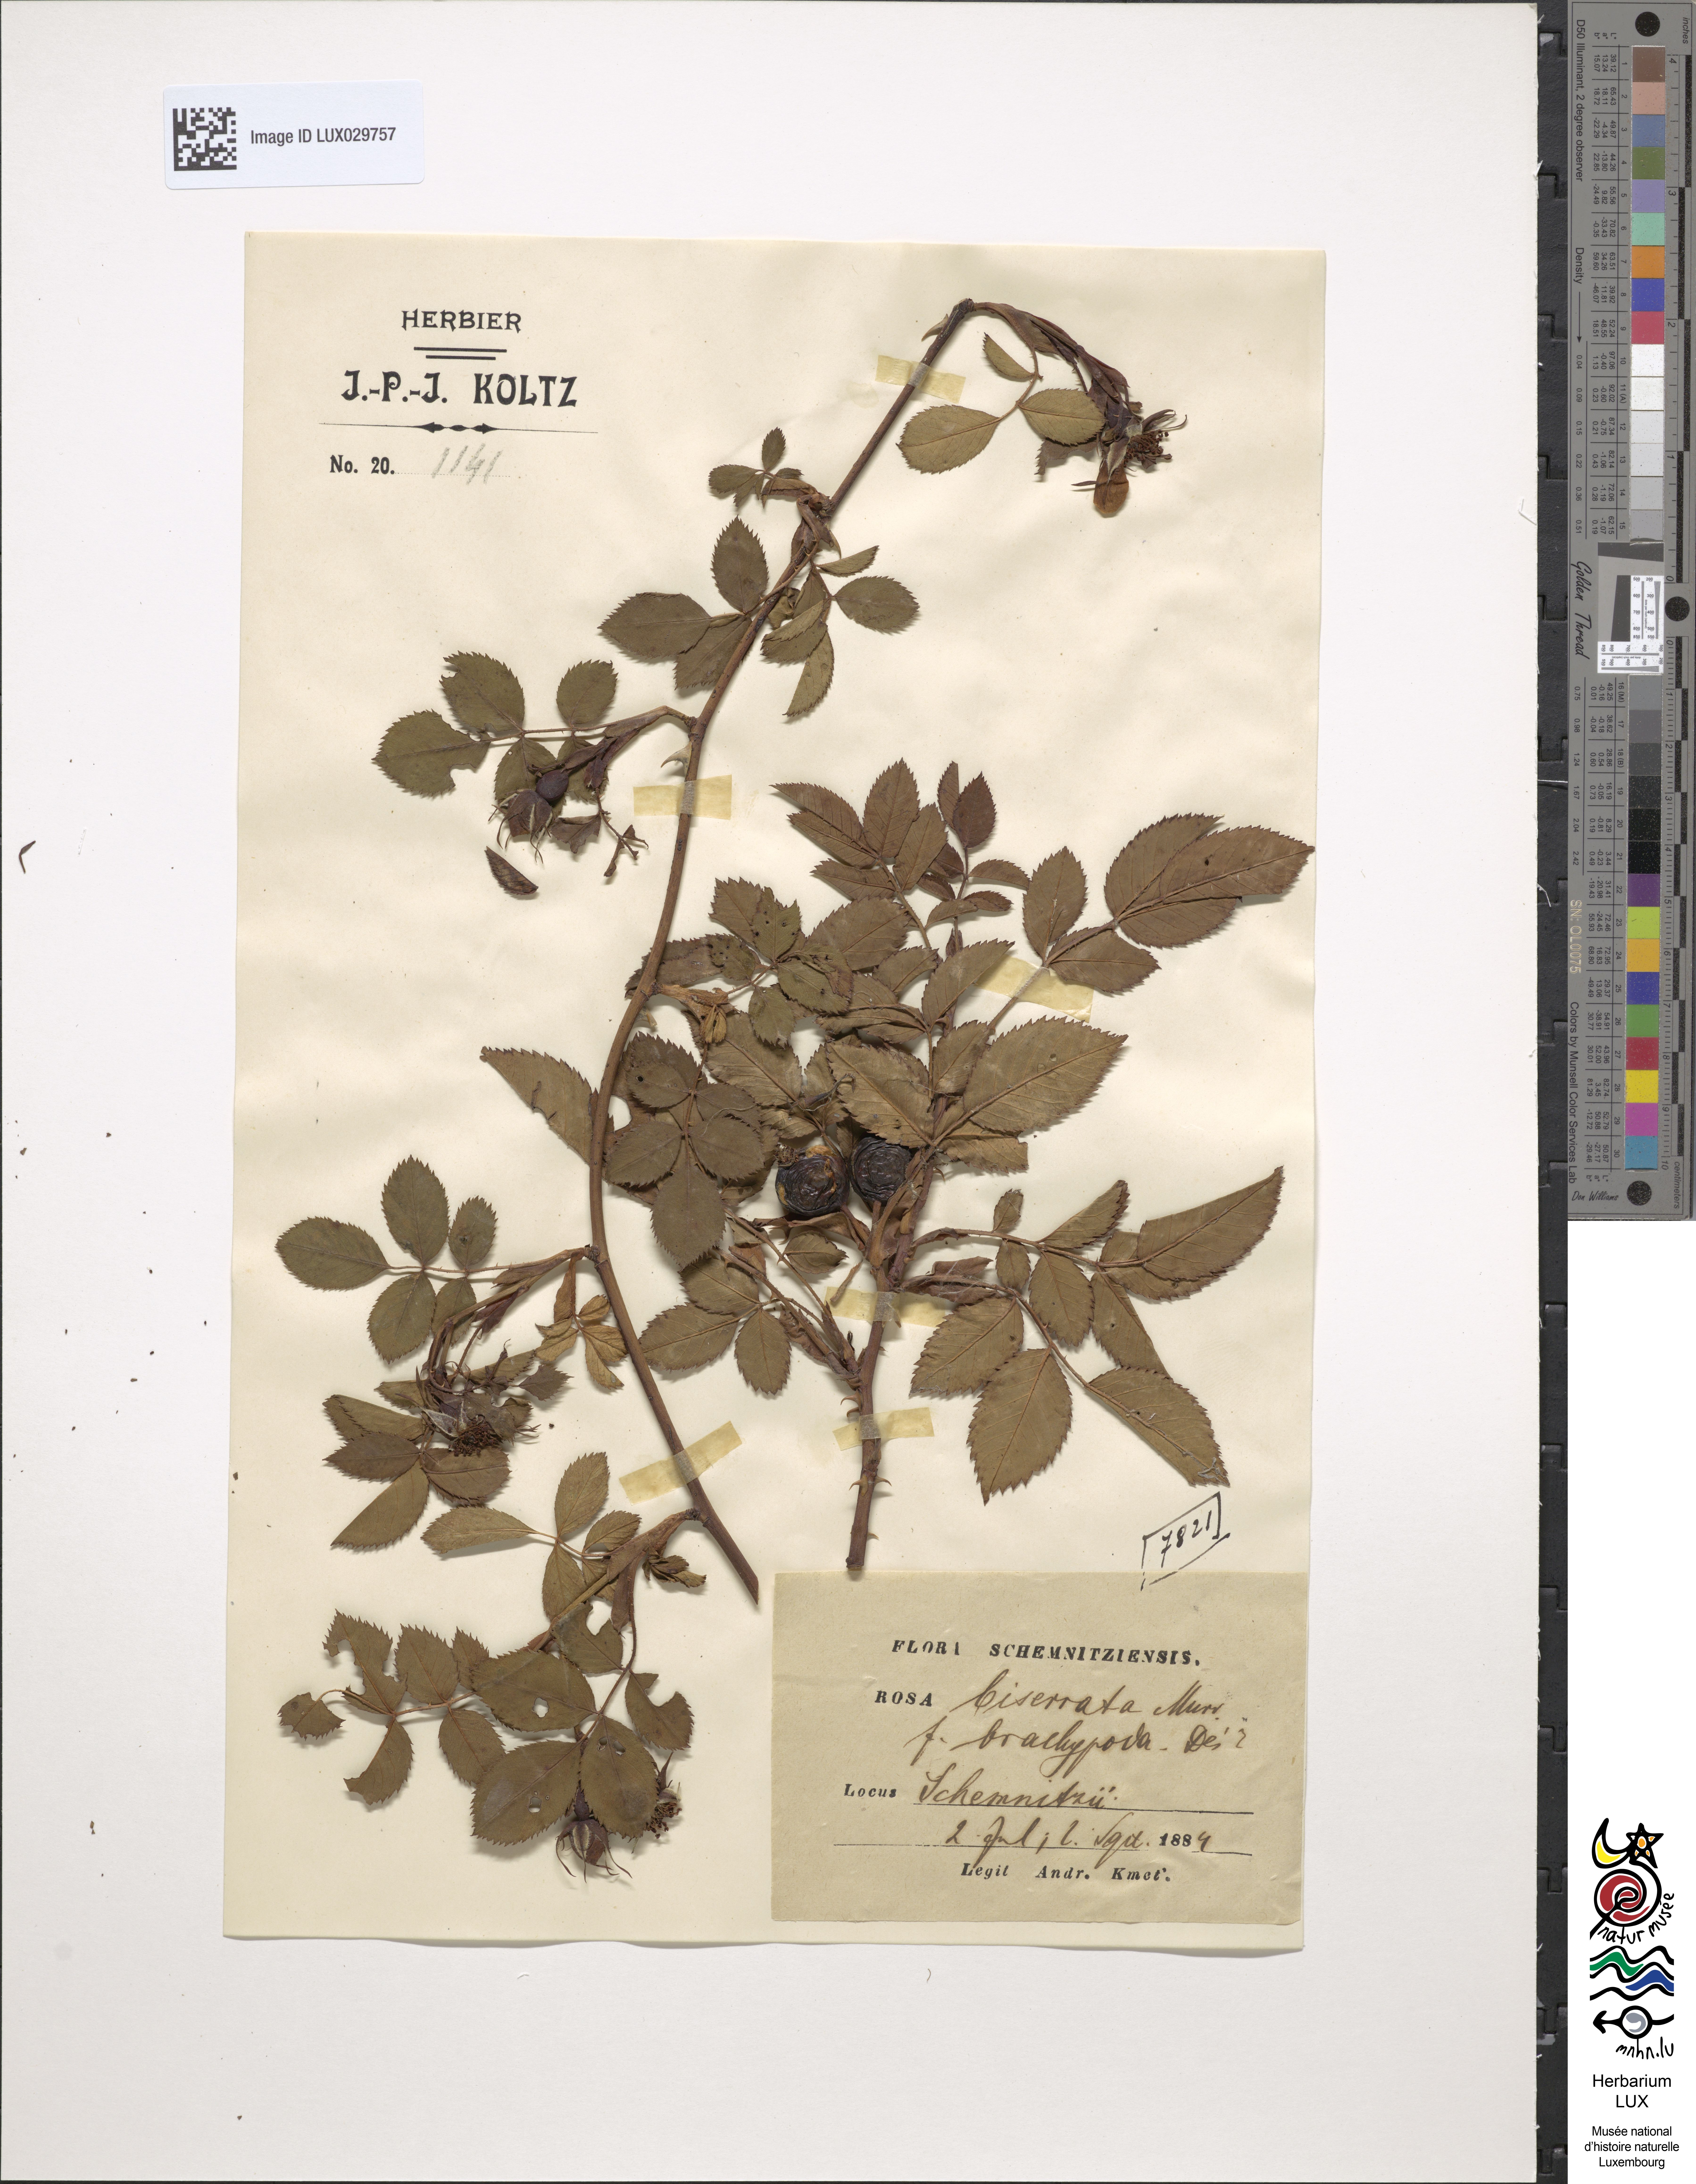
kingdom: Plantae
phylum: Tracheophyta
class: Magnoliopsida
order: Rosales
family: Rosaceae
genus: Rosa
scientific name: Rosa canina
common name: Dog rose
